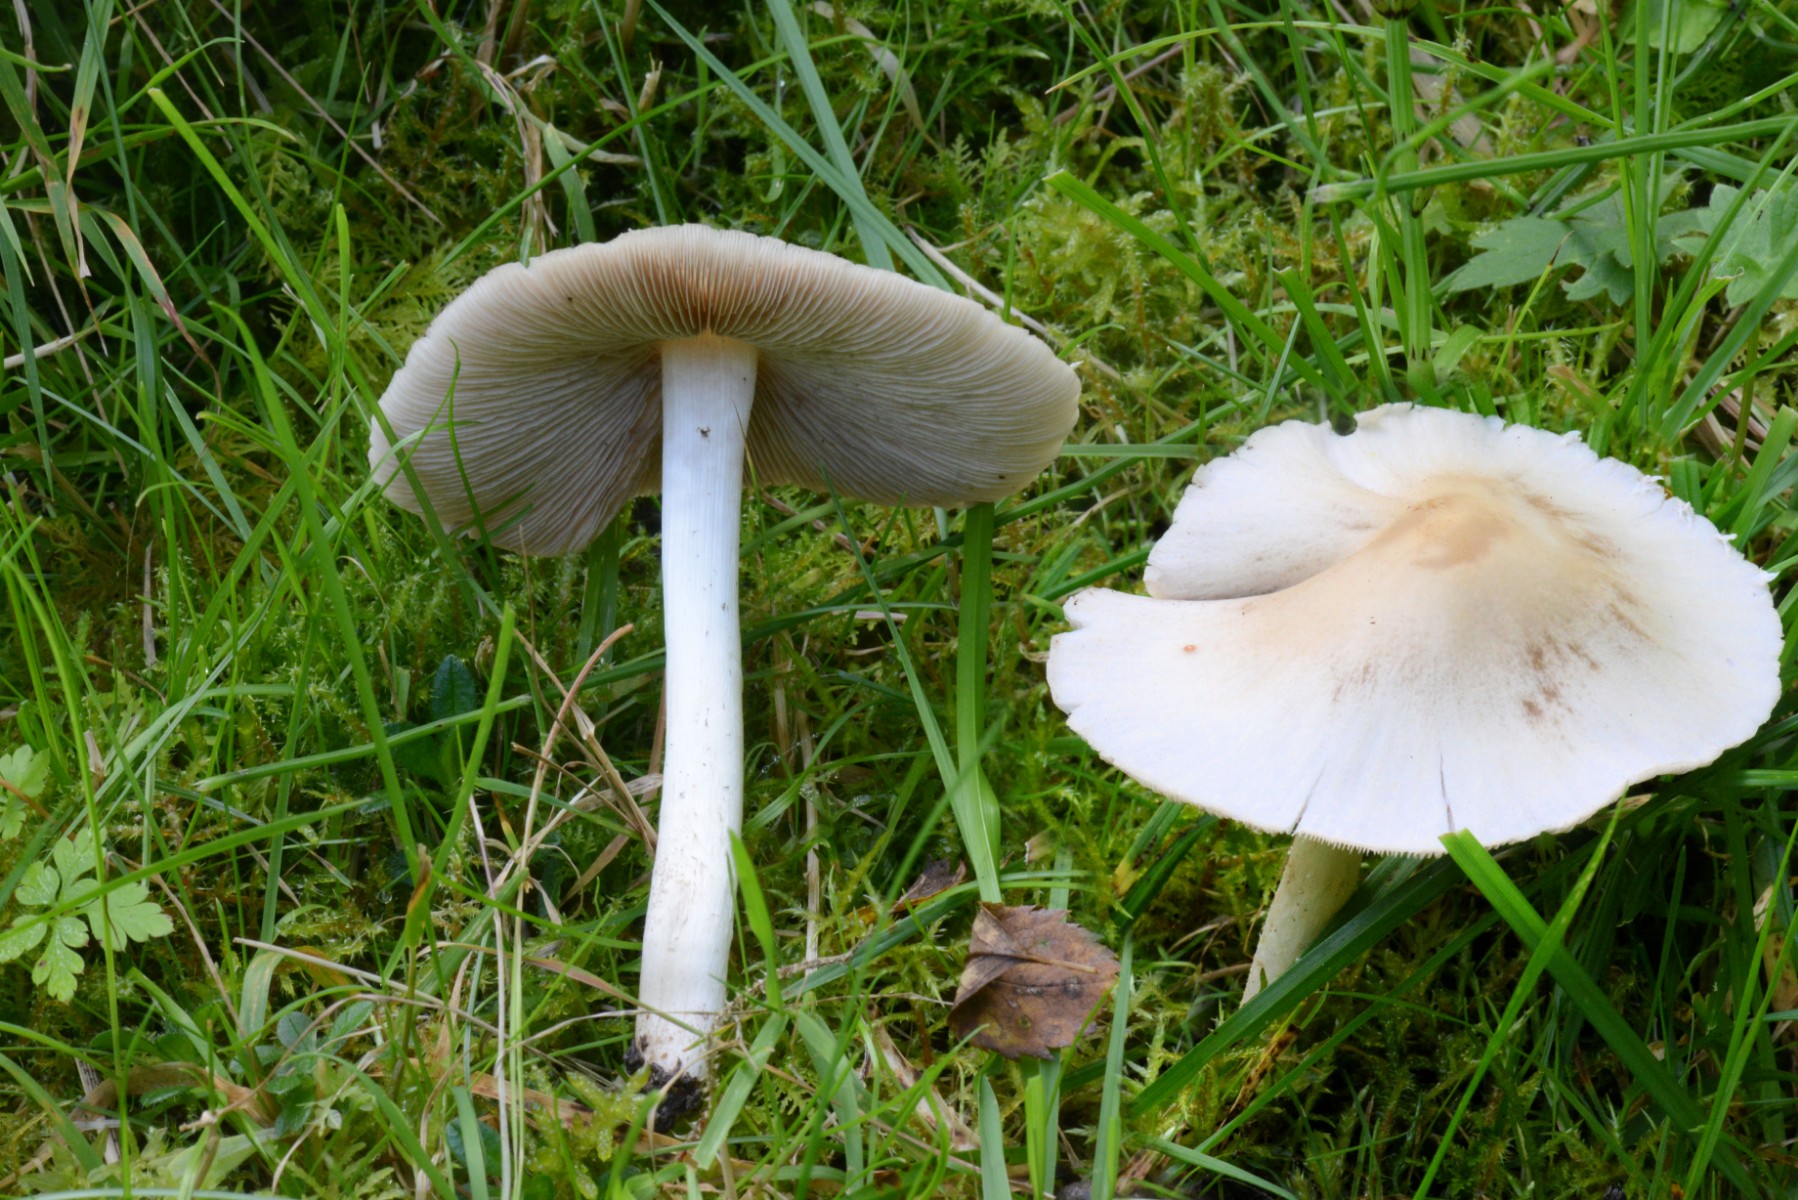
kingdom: Fungi
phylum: Basidiomycota
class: Agaricomycetes
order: Agaricales
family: Psathyrellaceae
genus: Candolleomyces
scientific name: Candolleomyces candolleanus
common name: Candolles mørkhat
